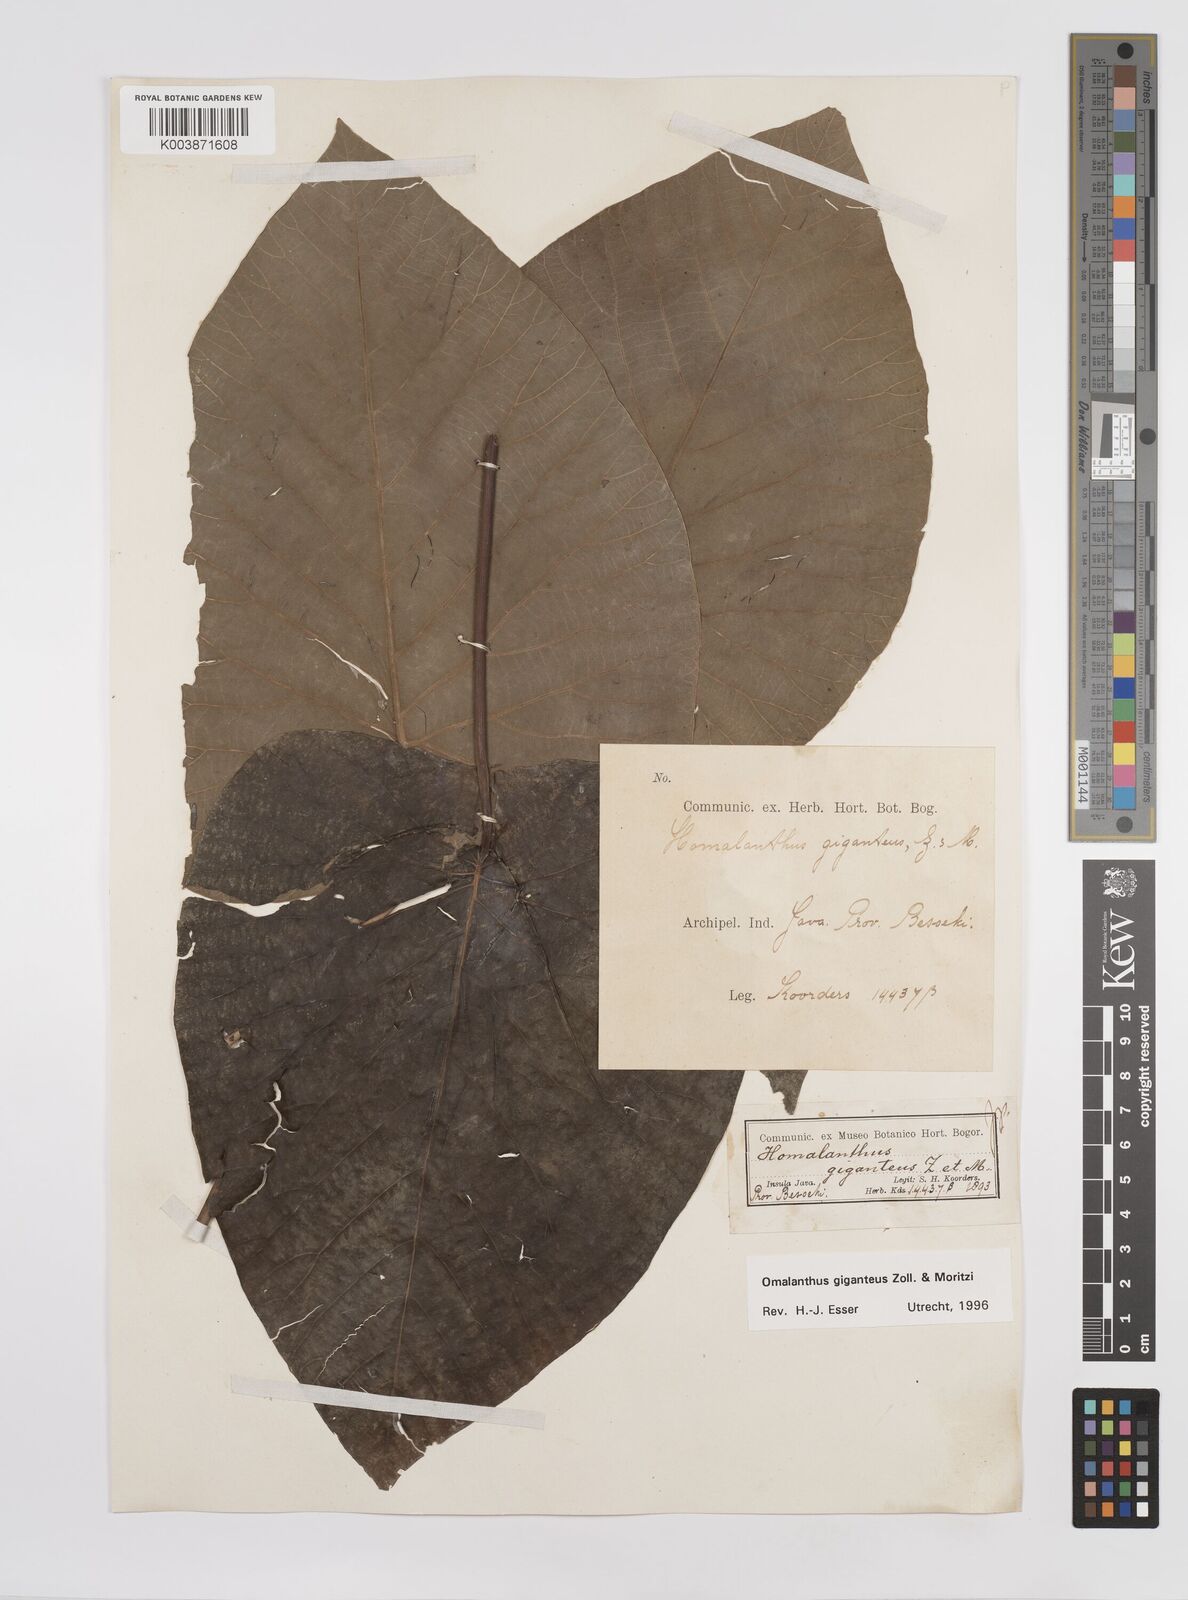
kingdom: Plantae
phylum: Tracheophyta
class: Magnoliopsida
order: Malpighiales
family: Euphorbiaceae
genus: Homalanthus
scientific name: Homalanthus giganteus
